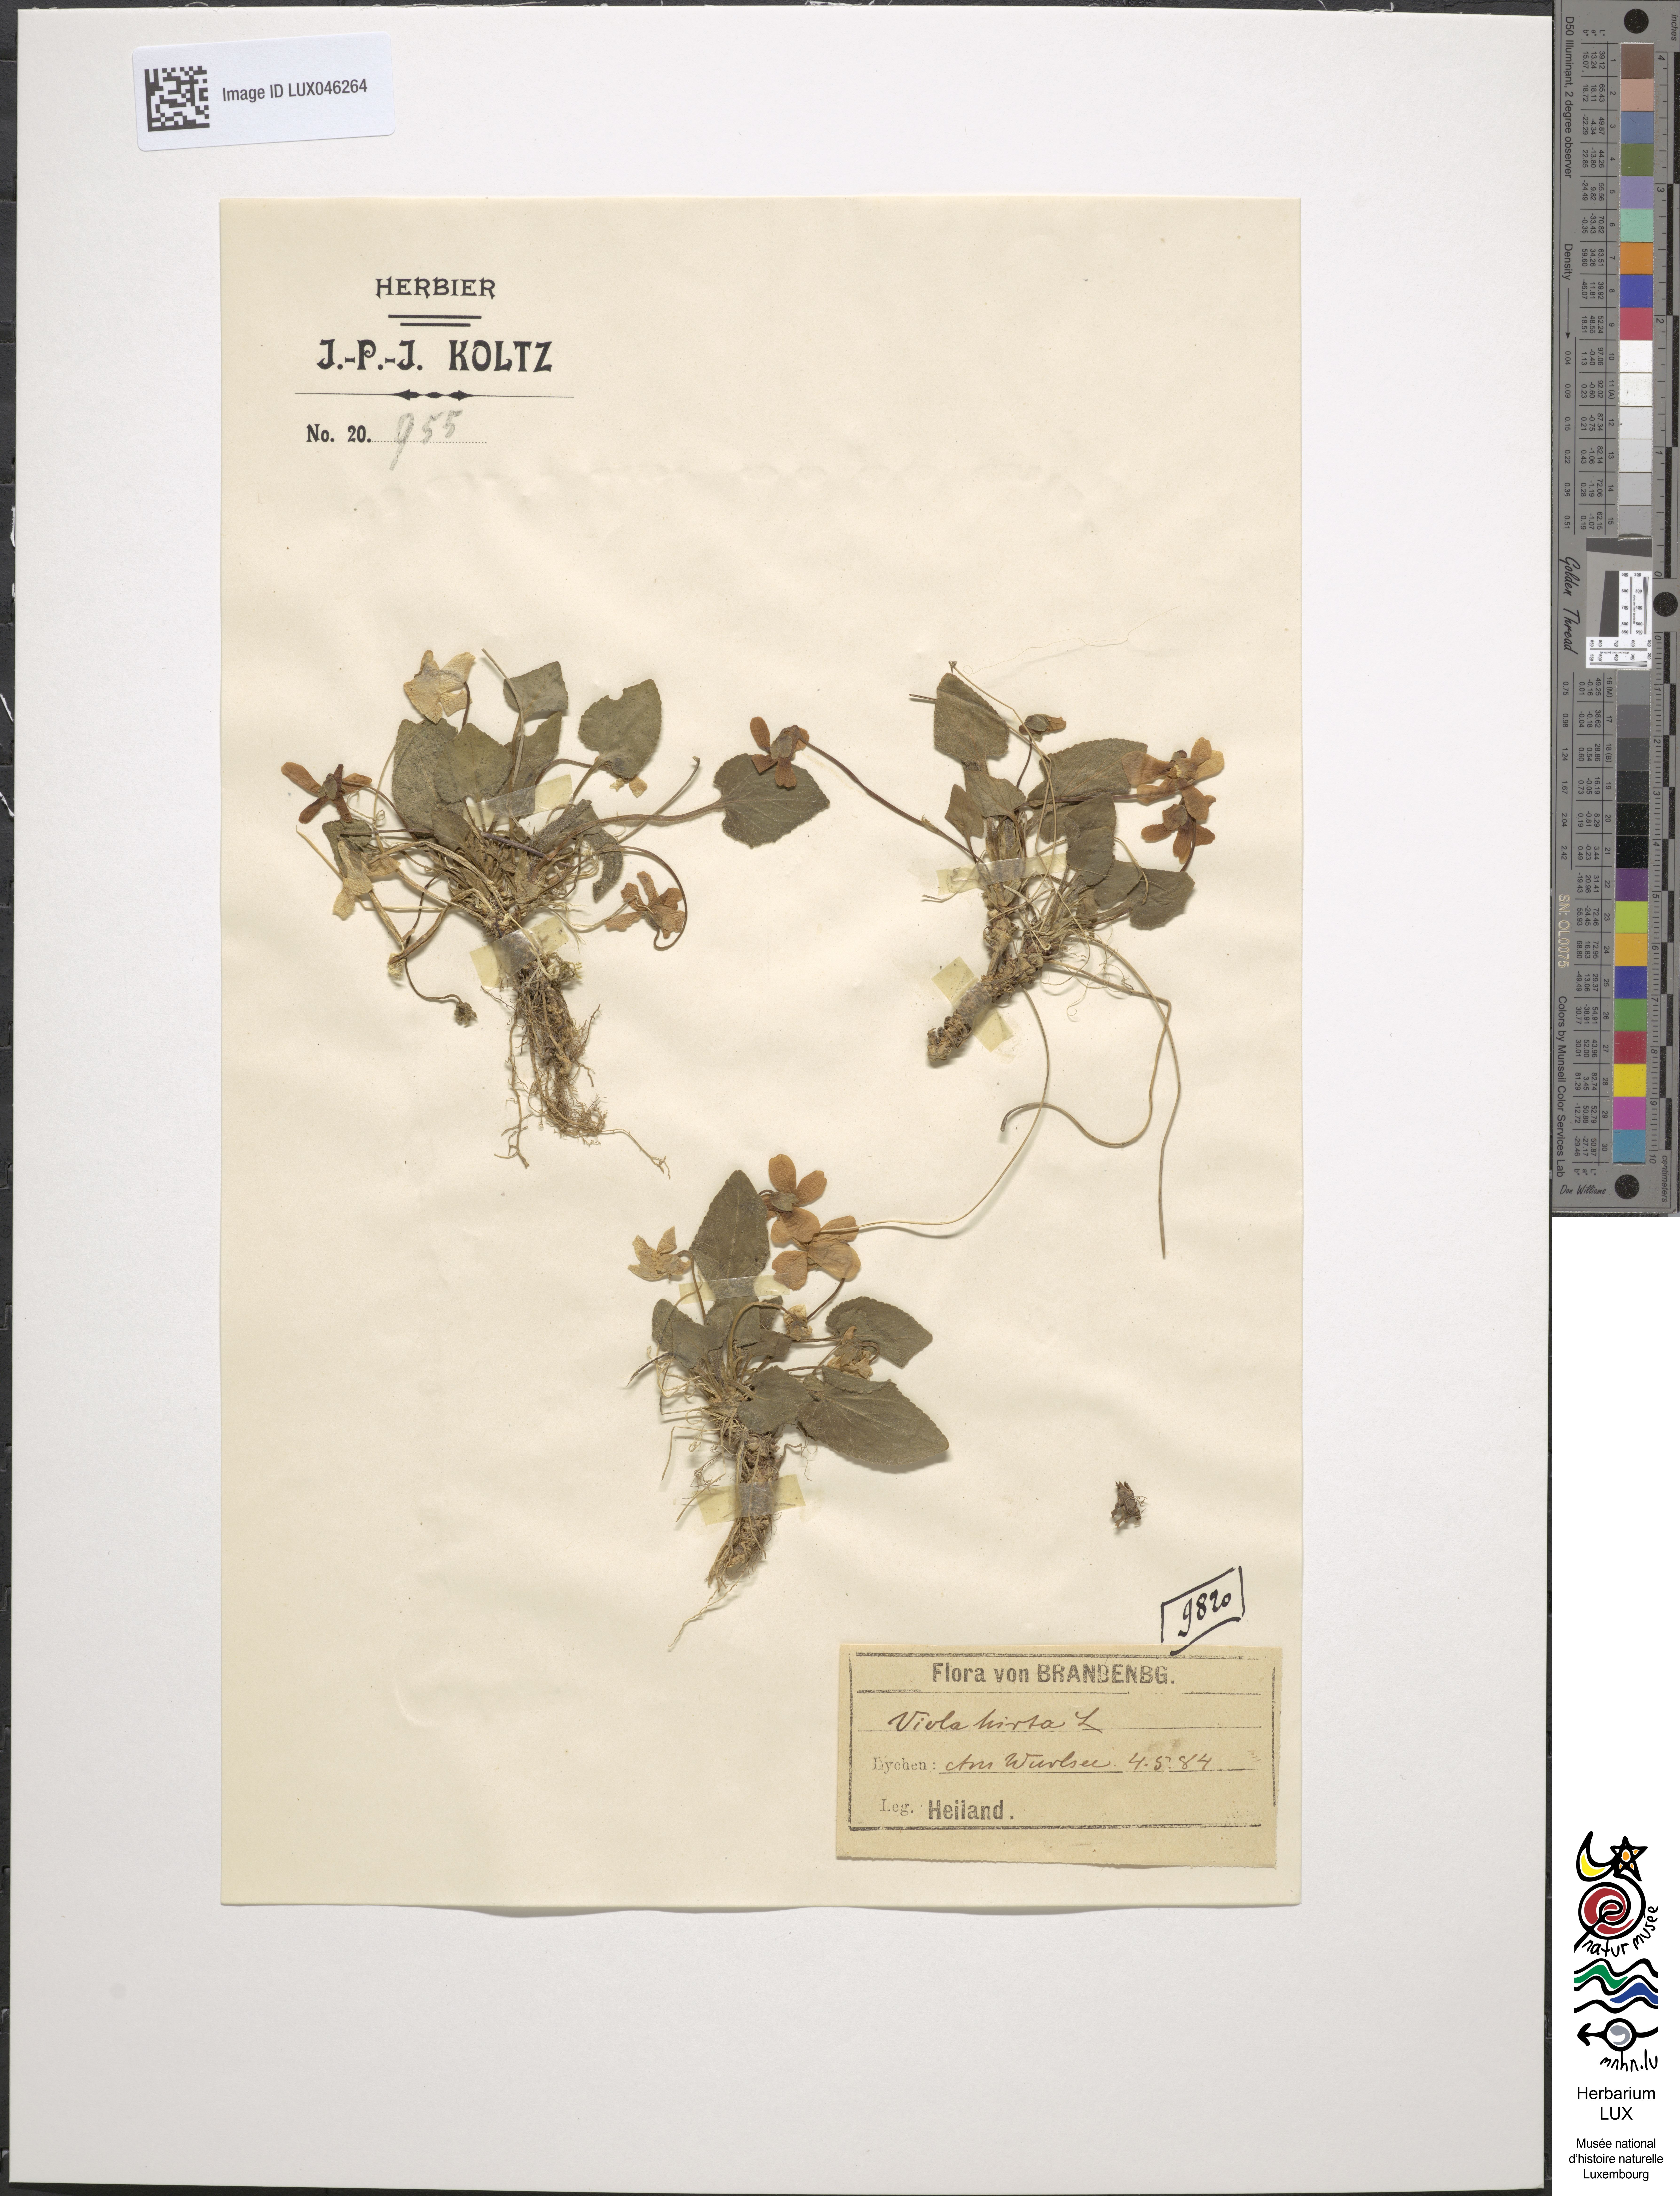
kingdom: Plantae
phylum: Tracheophyta
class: Magnoliopsida
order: Malpighiales
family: Violaceae
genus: Viola
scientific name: Viola hirta
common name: Hairy violet
